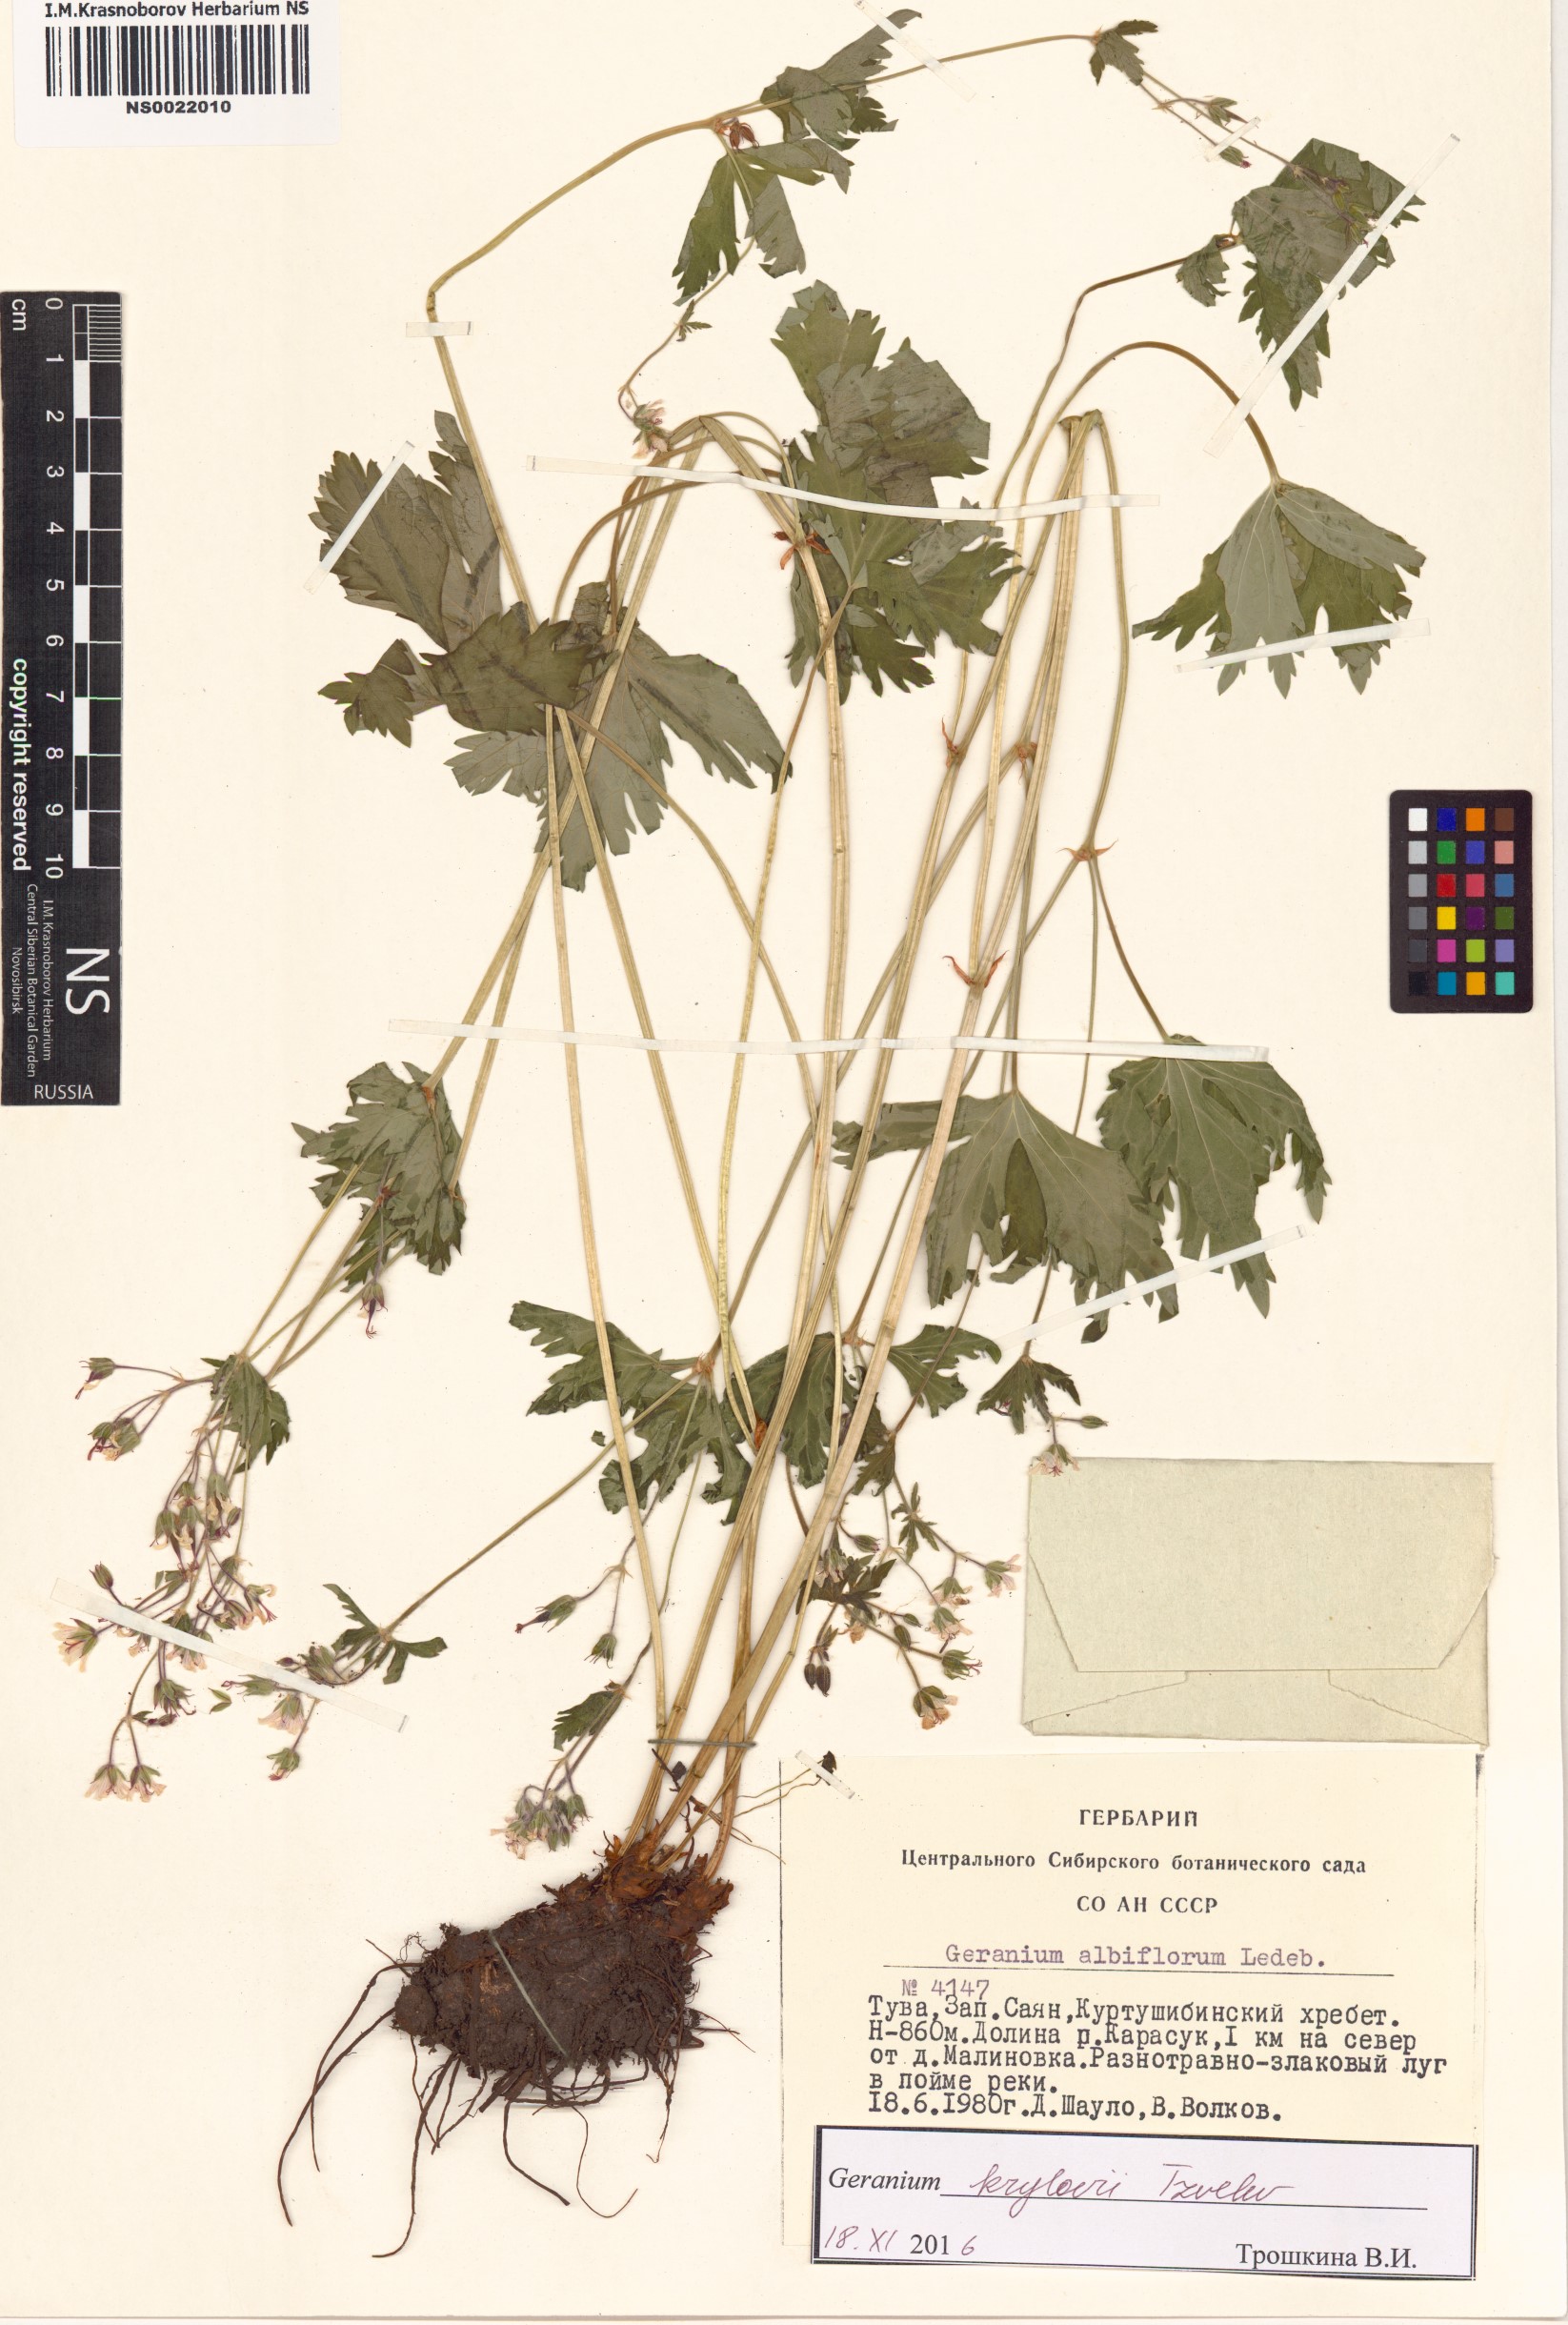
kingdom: Plantae
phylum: Tracheophyta
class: Magnoliopsida
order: Geraniales
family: Geraniaceae
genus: Geranium
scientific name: Geranium sylvaticum
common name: Wood crane's-bill
